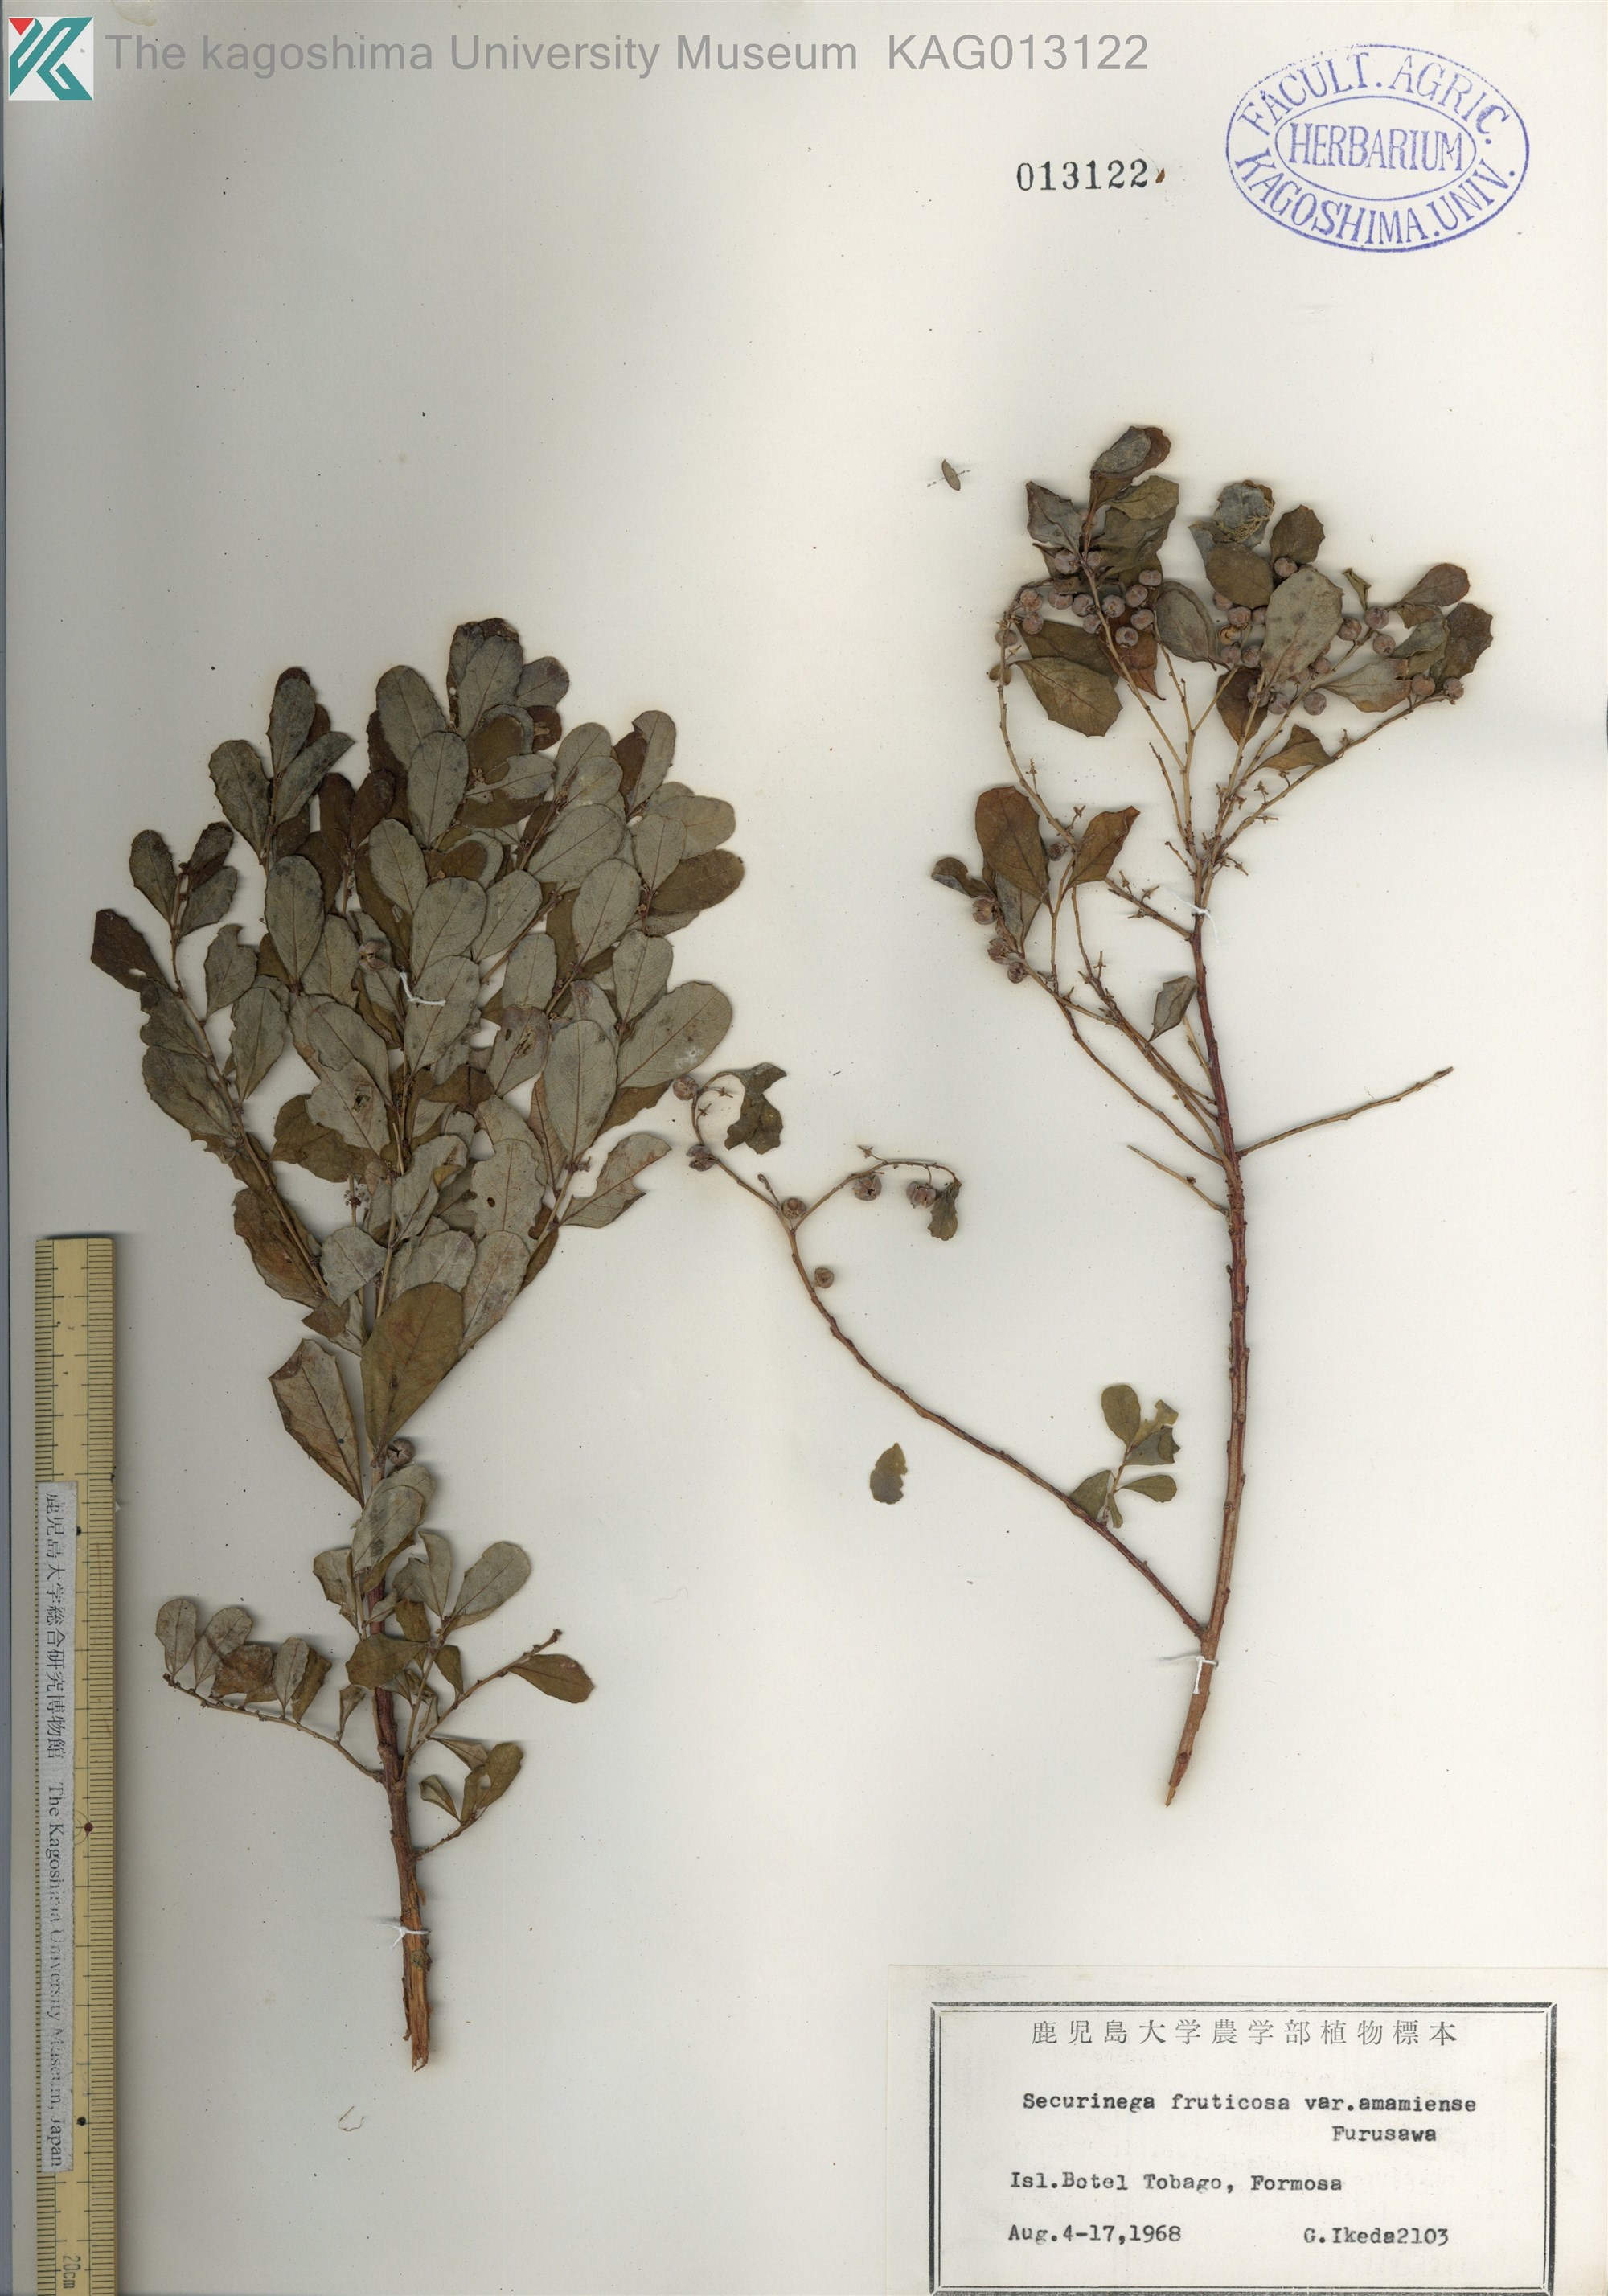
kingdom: Plantae
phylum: Tracheophyta
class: Magnoliopsida
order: Malpighiales
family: Phyllanthaceae
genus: Flueggea
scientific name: Flueggea suffruticosa
